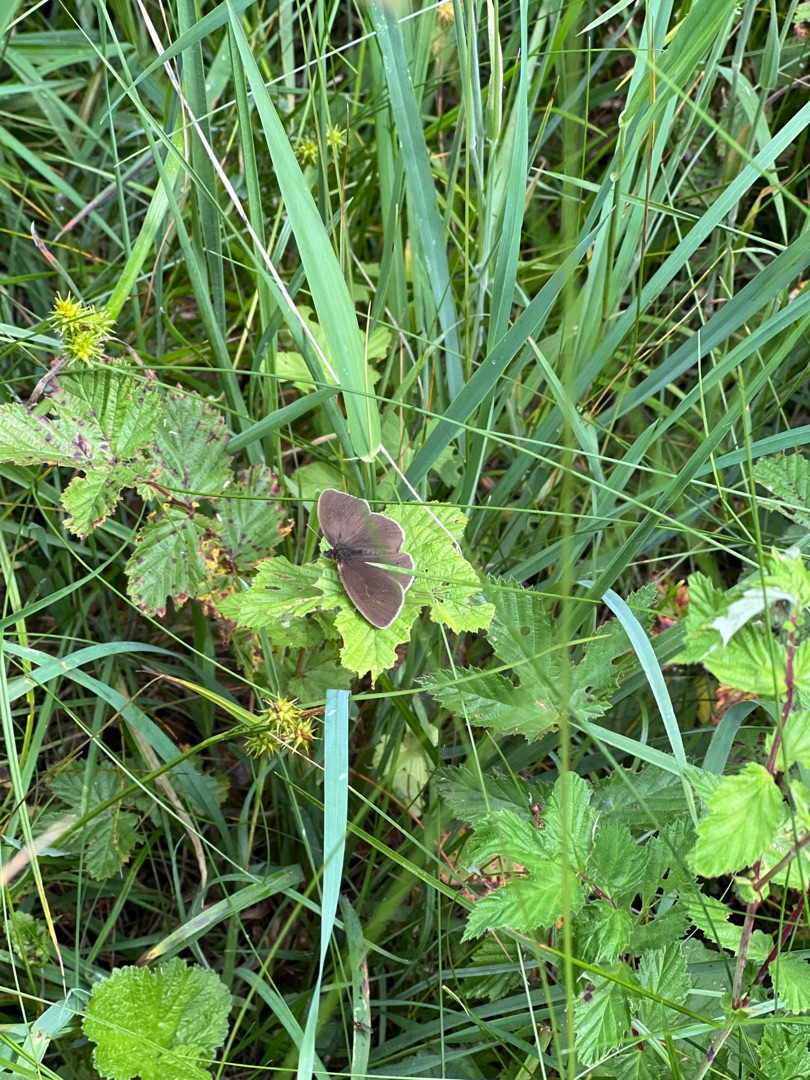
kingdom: Animalia
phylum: Arthropoda
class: Insecta
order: Lepidoptera
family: Nymphalidae
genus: Aphantopus
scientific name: Aphantopus hyperantus
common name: Engrandøje
